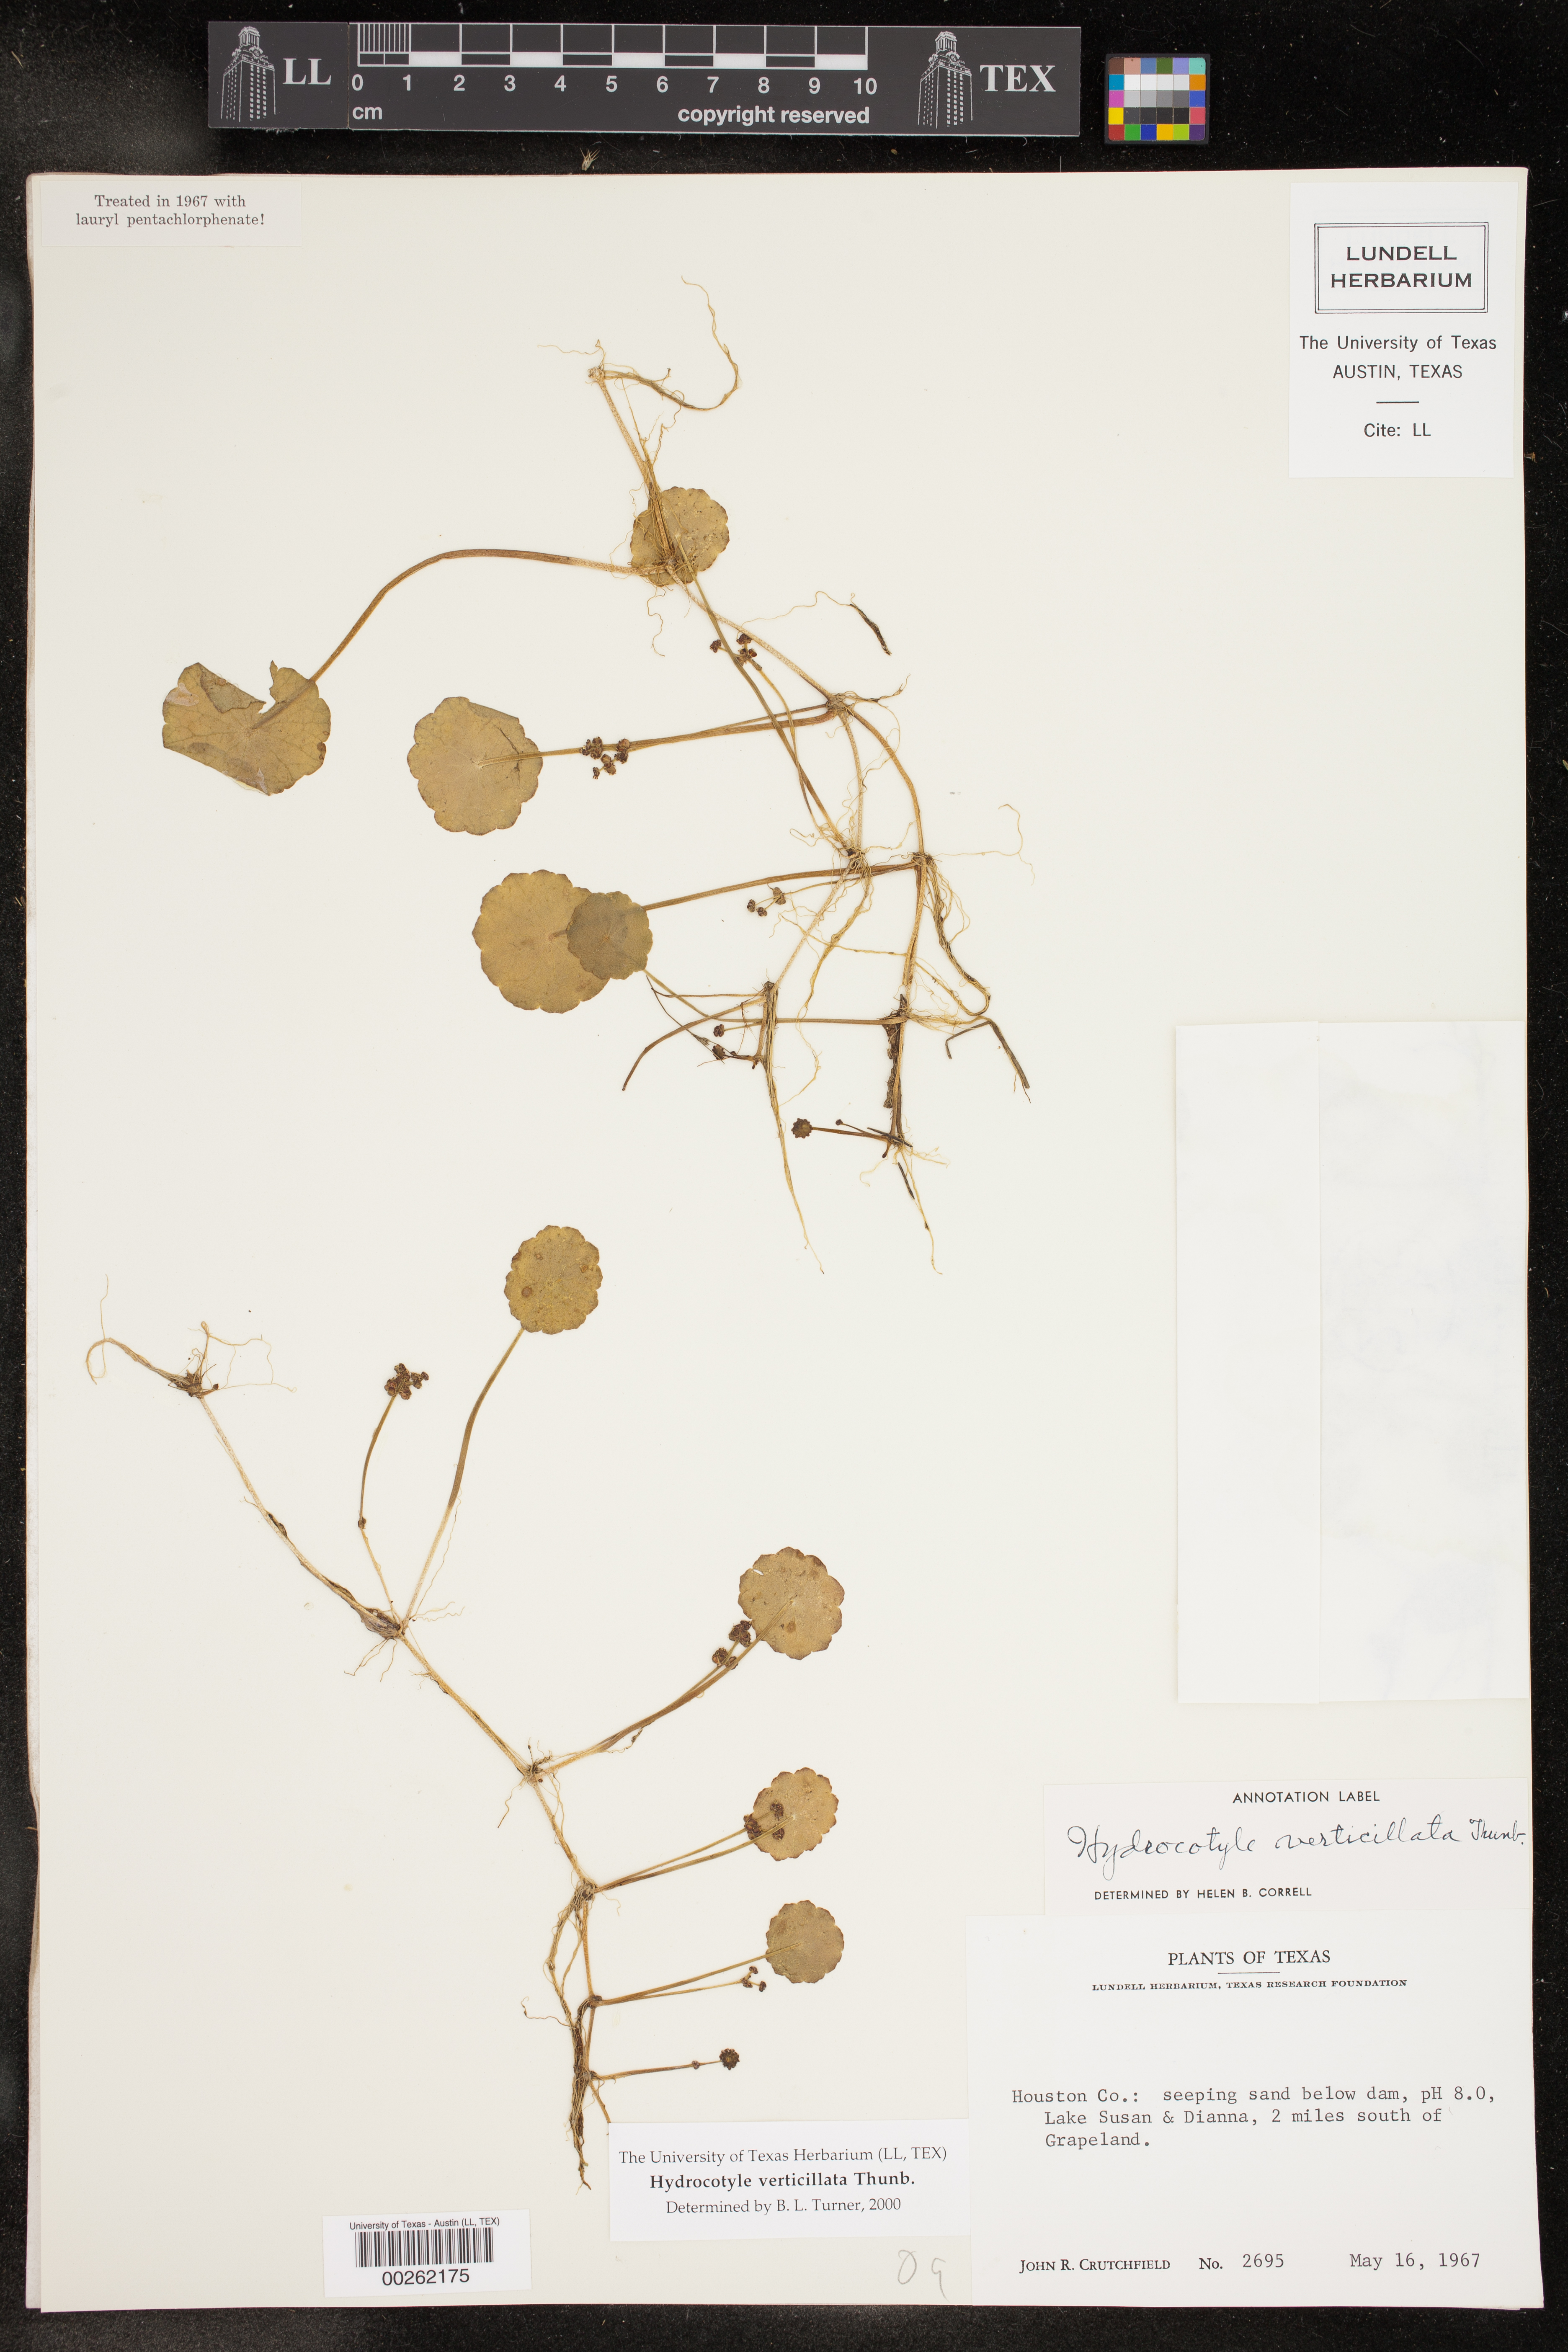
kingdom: Plantae
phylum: Tracheophyta
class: Magnoliopsida
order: Apiales
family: Araliaceae
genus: Hydrocotyle
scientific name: Hydrocotyle verticillata
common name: Whorled marshpennywort
